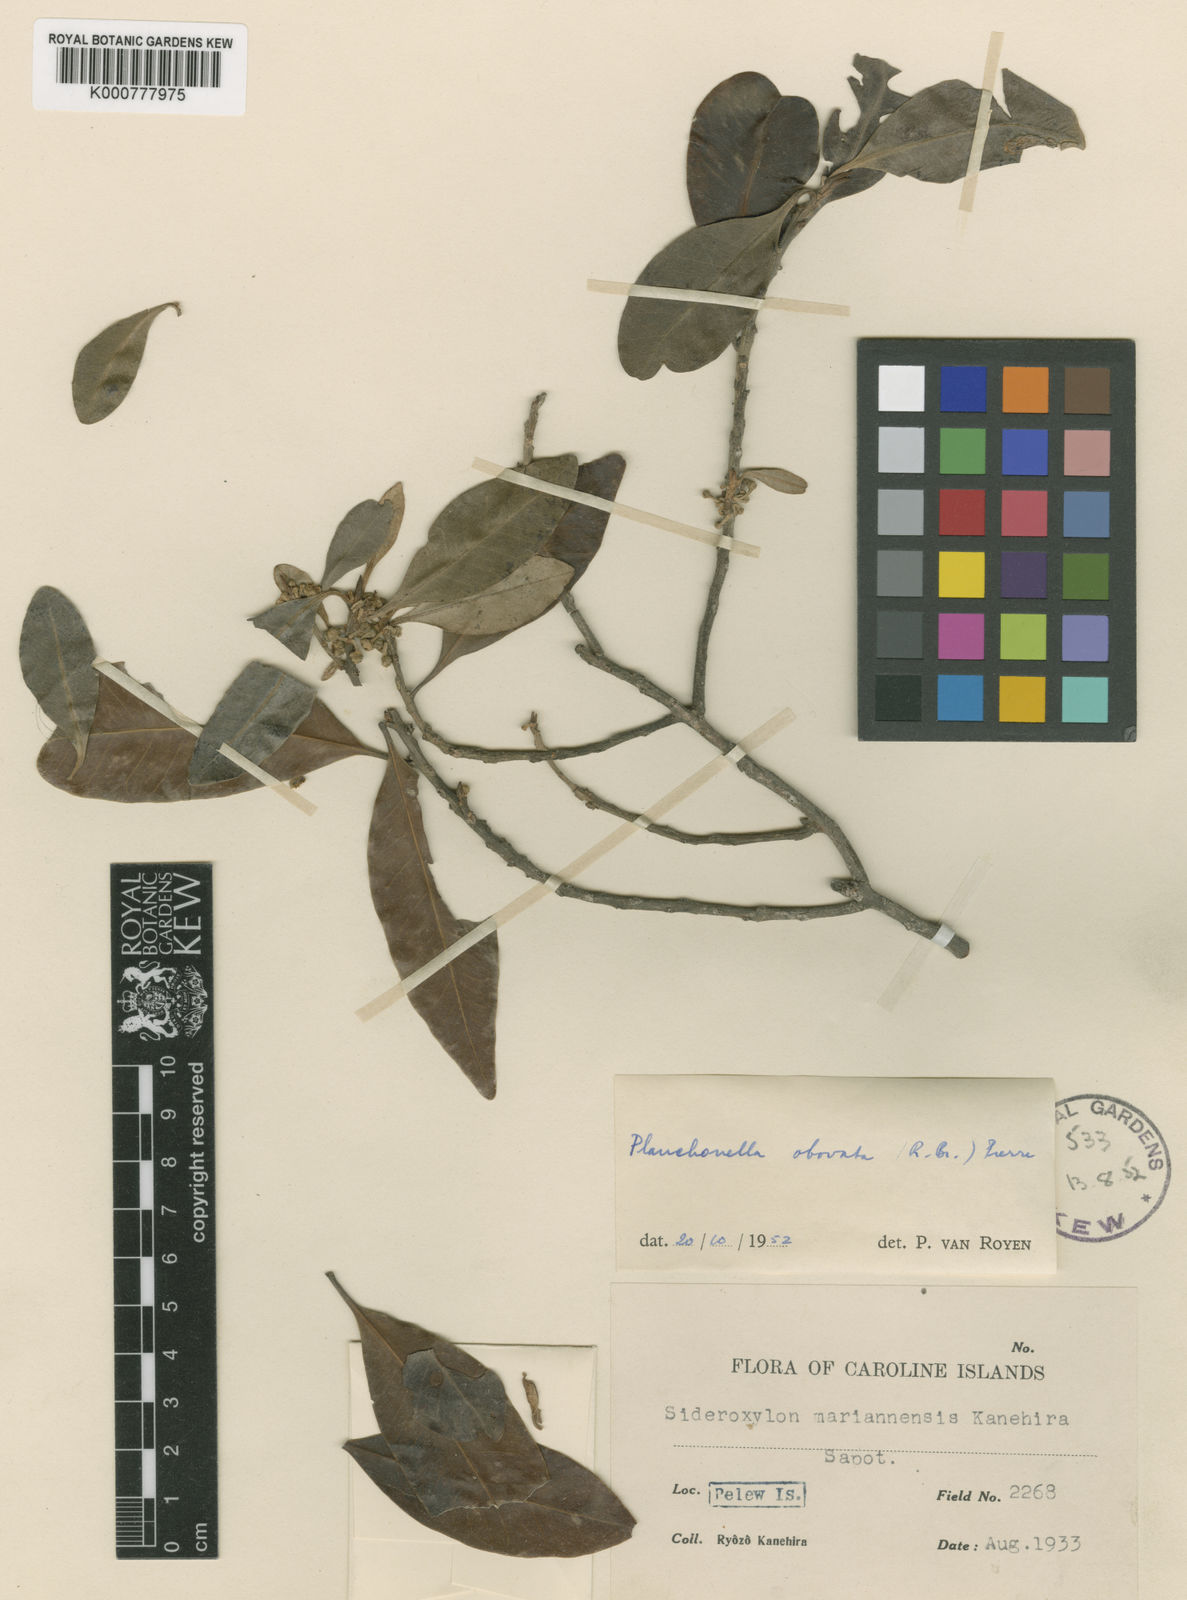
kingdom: Plantae
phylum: Tracheophyta
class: Magnoliopsida
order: Ericales
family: Sapotaceae
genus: Planchonella
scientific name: Planchonella obovata
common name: Black-ash
